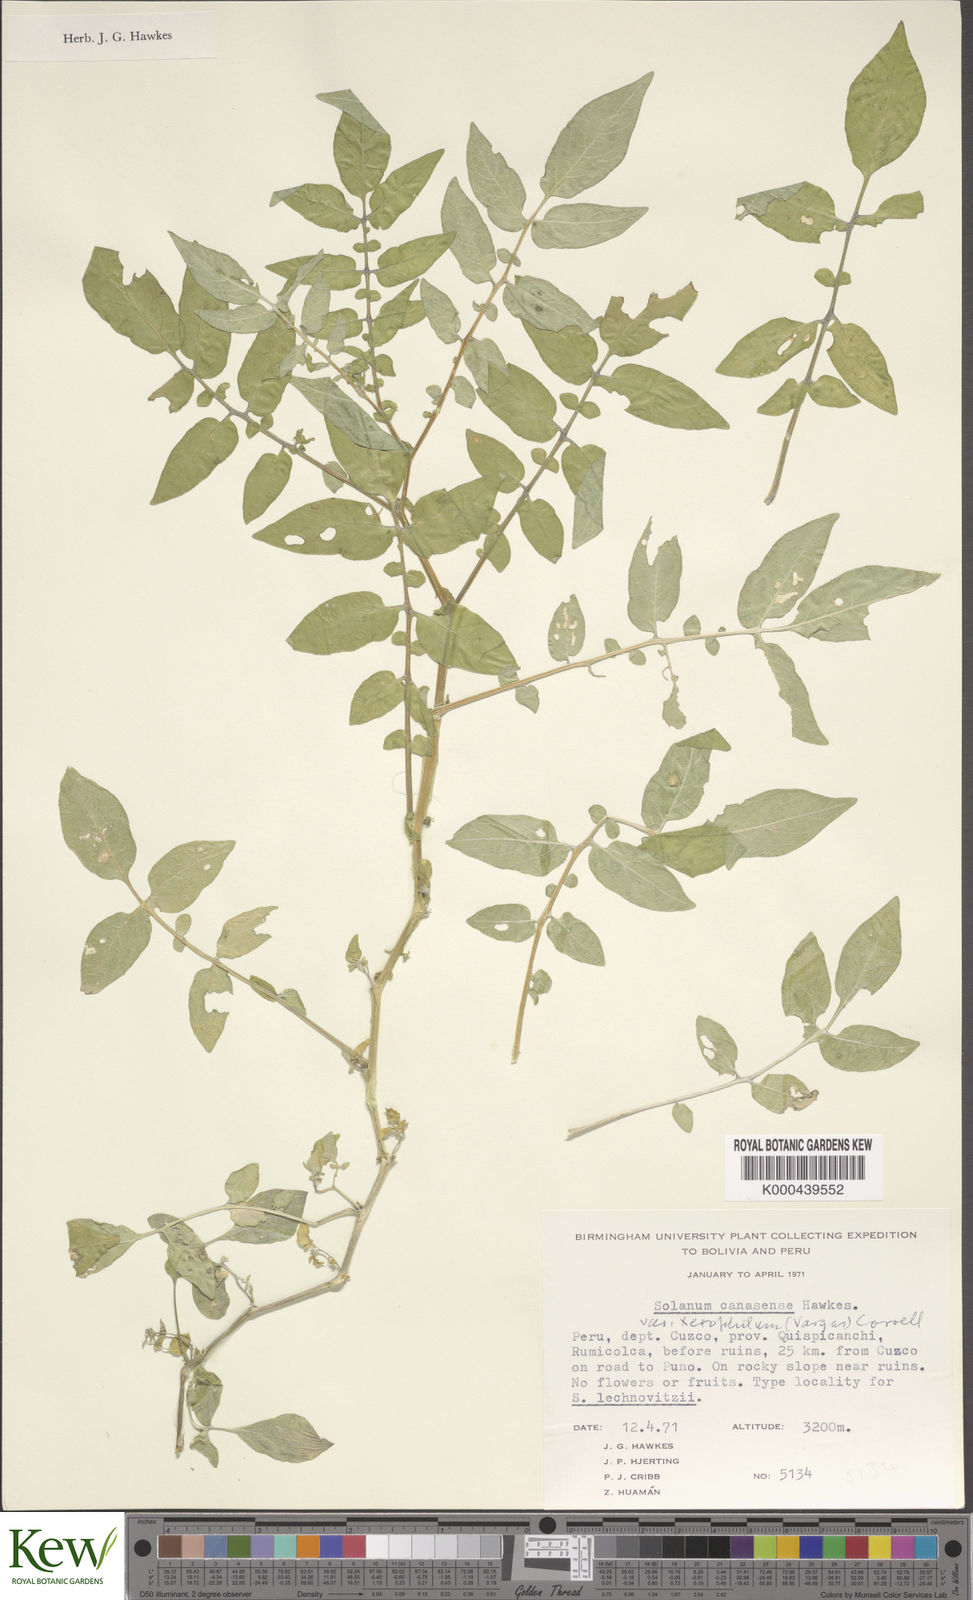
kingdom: Plantae
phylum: Tracheophyta
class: Magnoliopsida
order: Solanales
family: Solanaceae
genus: Solanum
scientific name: Solanum candolleanum
